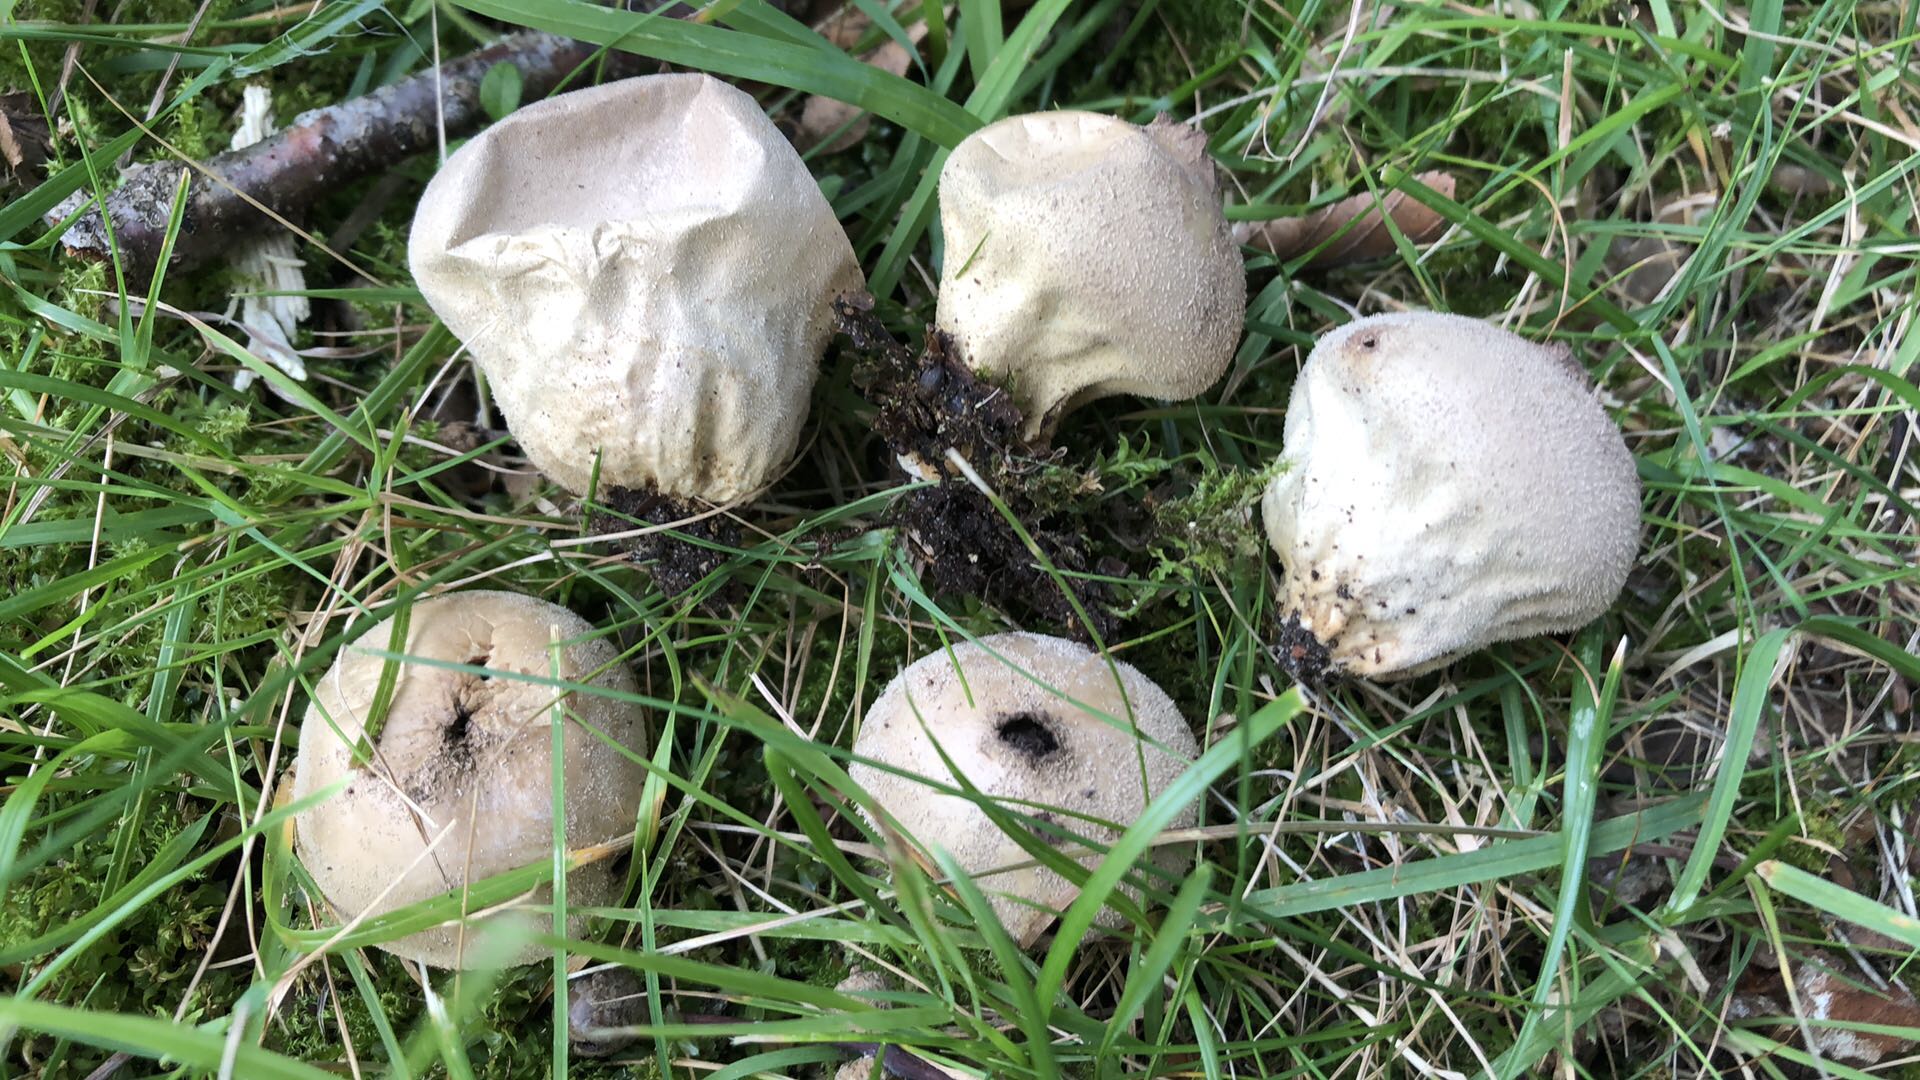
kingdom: Fungi
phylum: Basidiomycota
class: Agaricomycetes
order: Agaricales
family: Lycoperdaceae
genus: Lycoperdon
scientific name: Lycoperdon molle
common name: skov-støvbold
